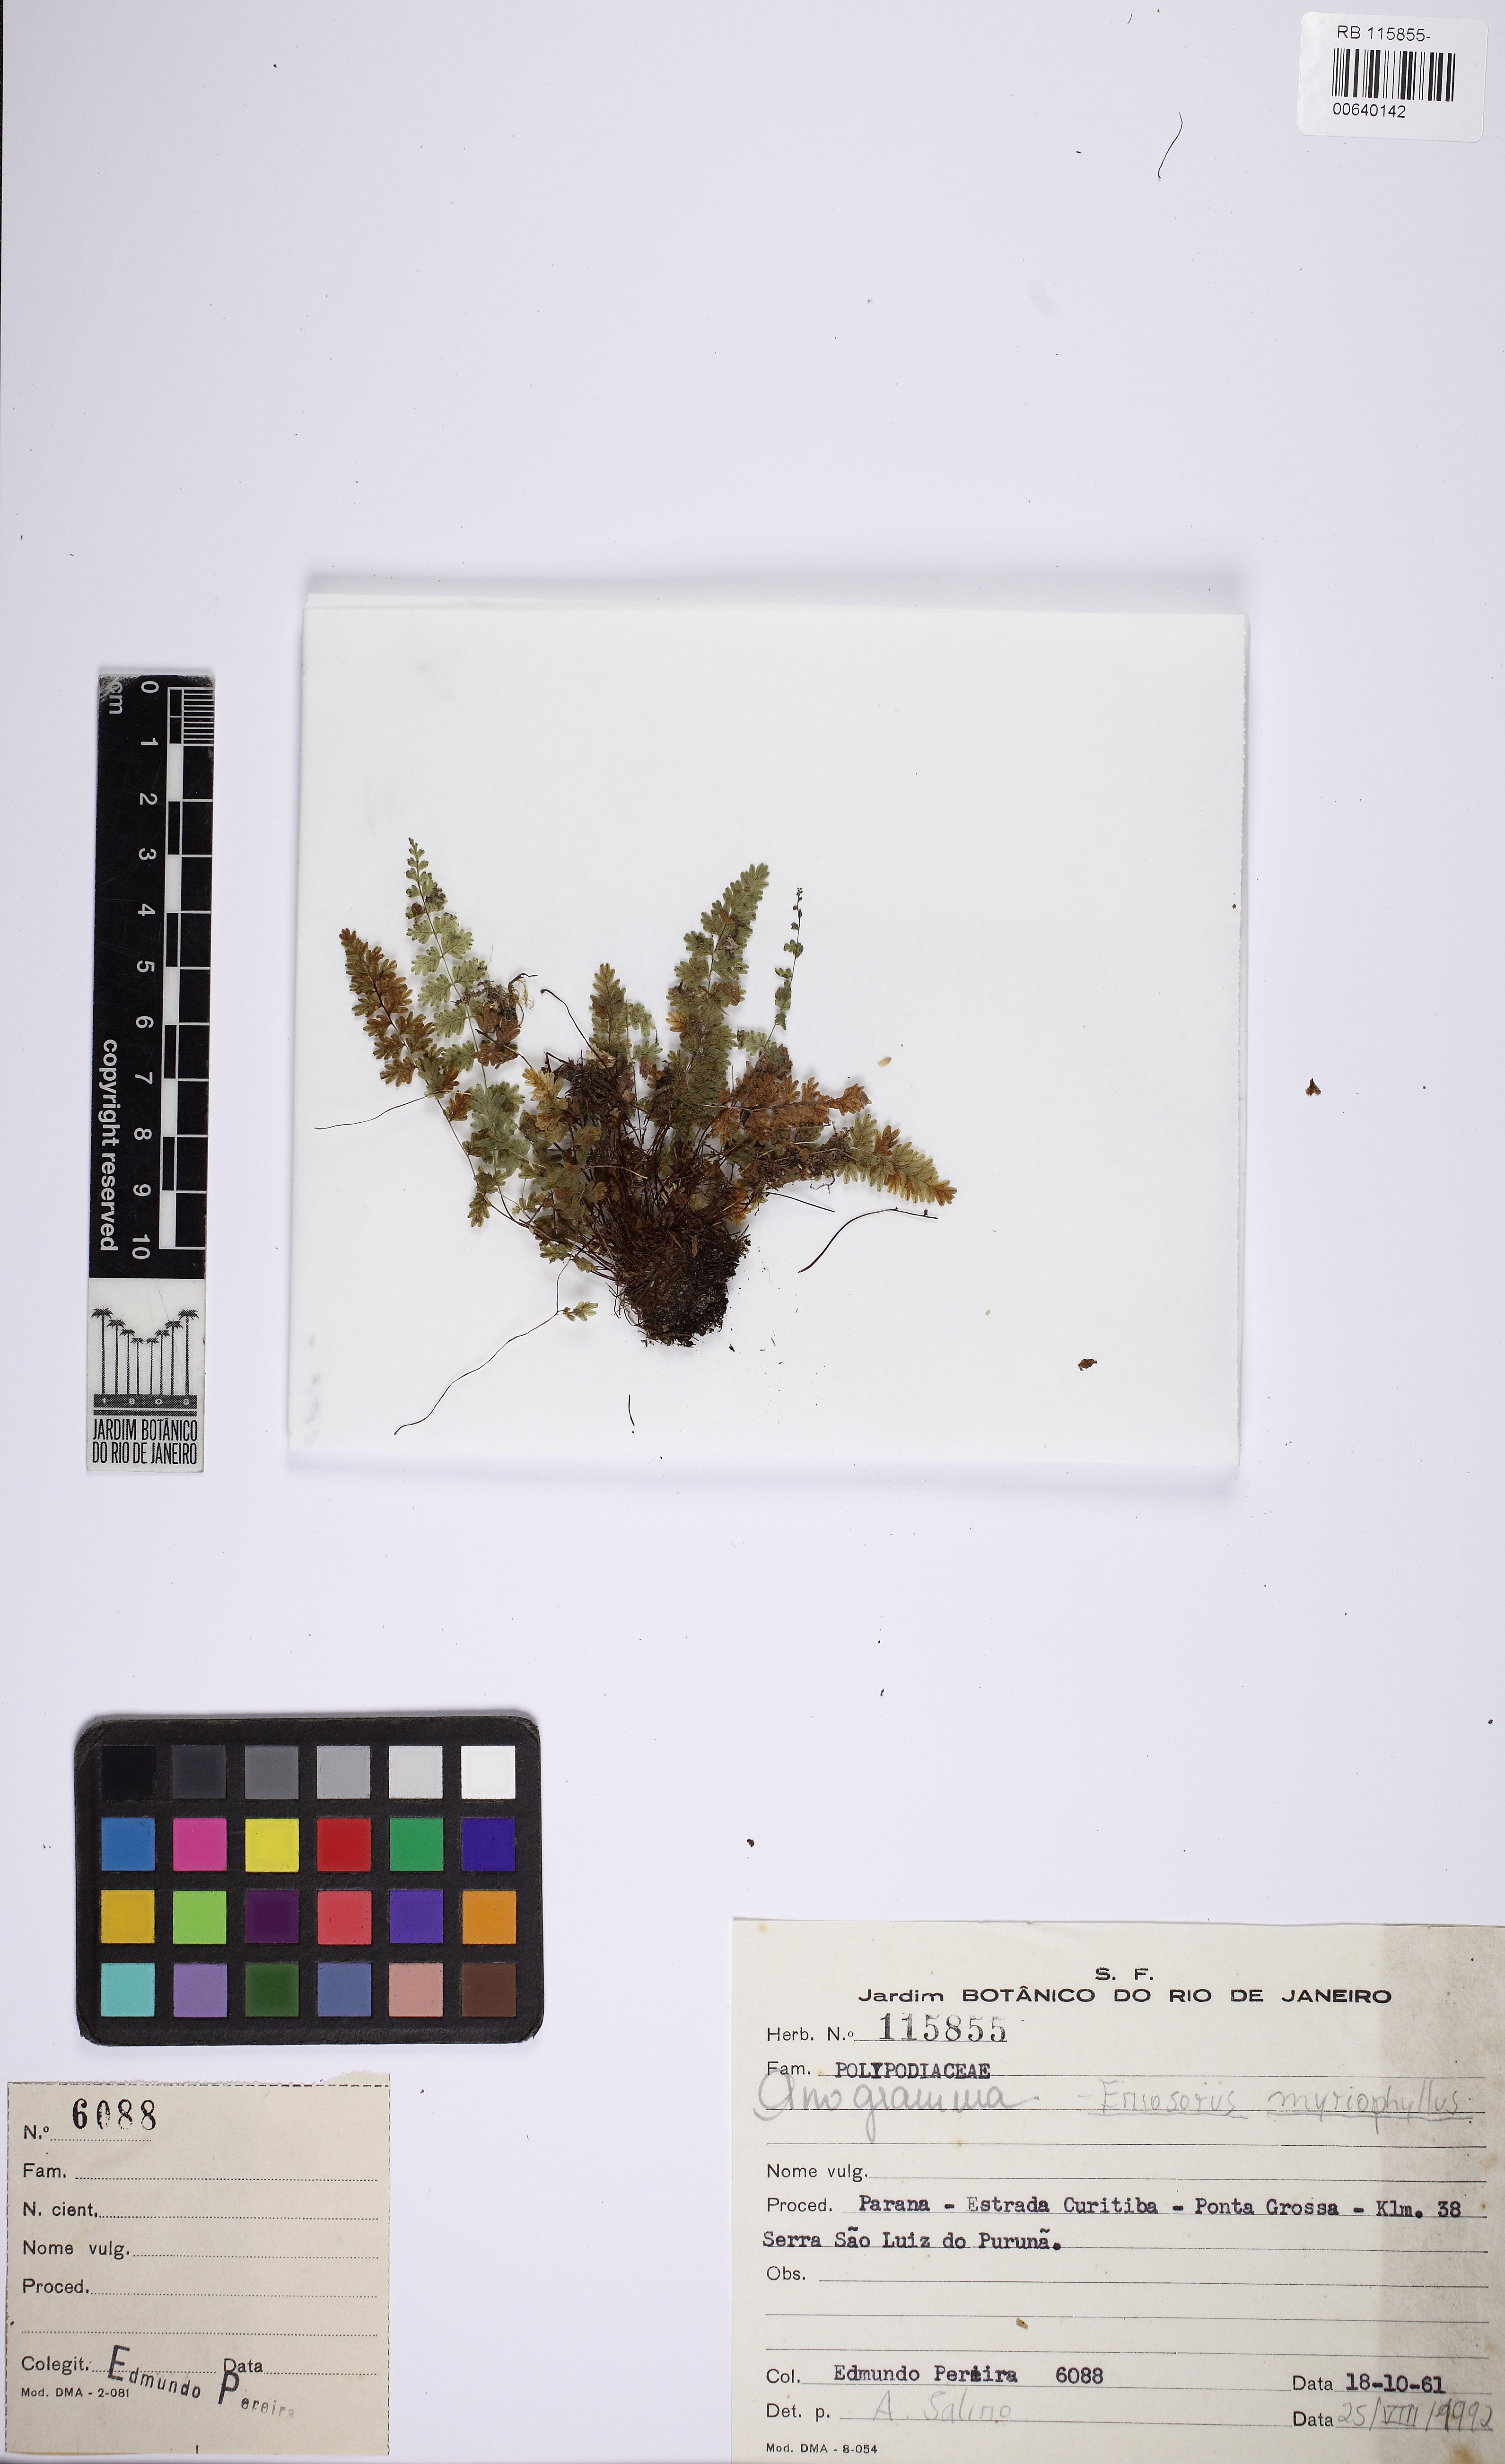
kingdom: Plantae
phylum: Tracheophyta
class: Polypodiopsida
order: Polypodiales
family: Pteridaceae
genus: Tryonia
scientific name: Tryonia areniticola
